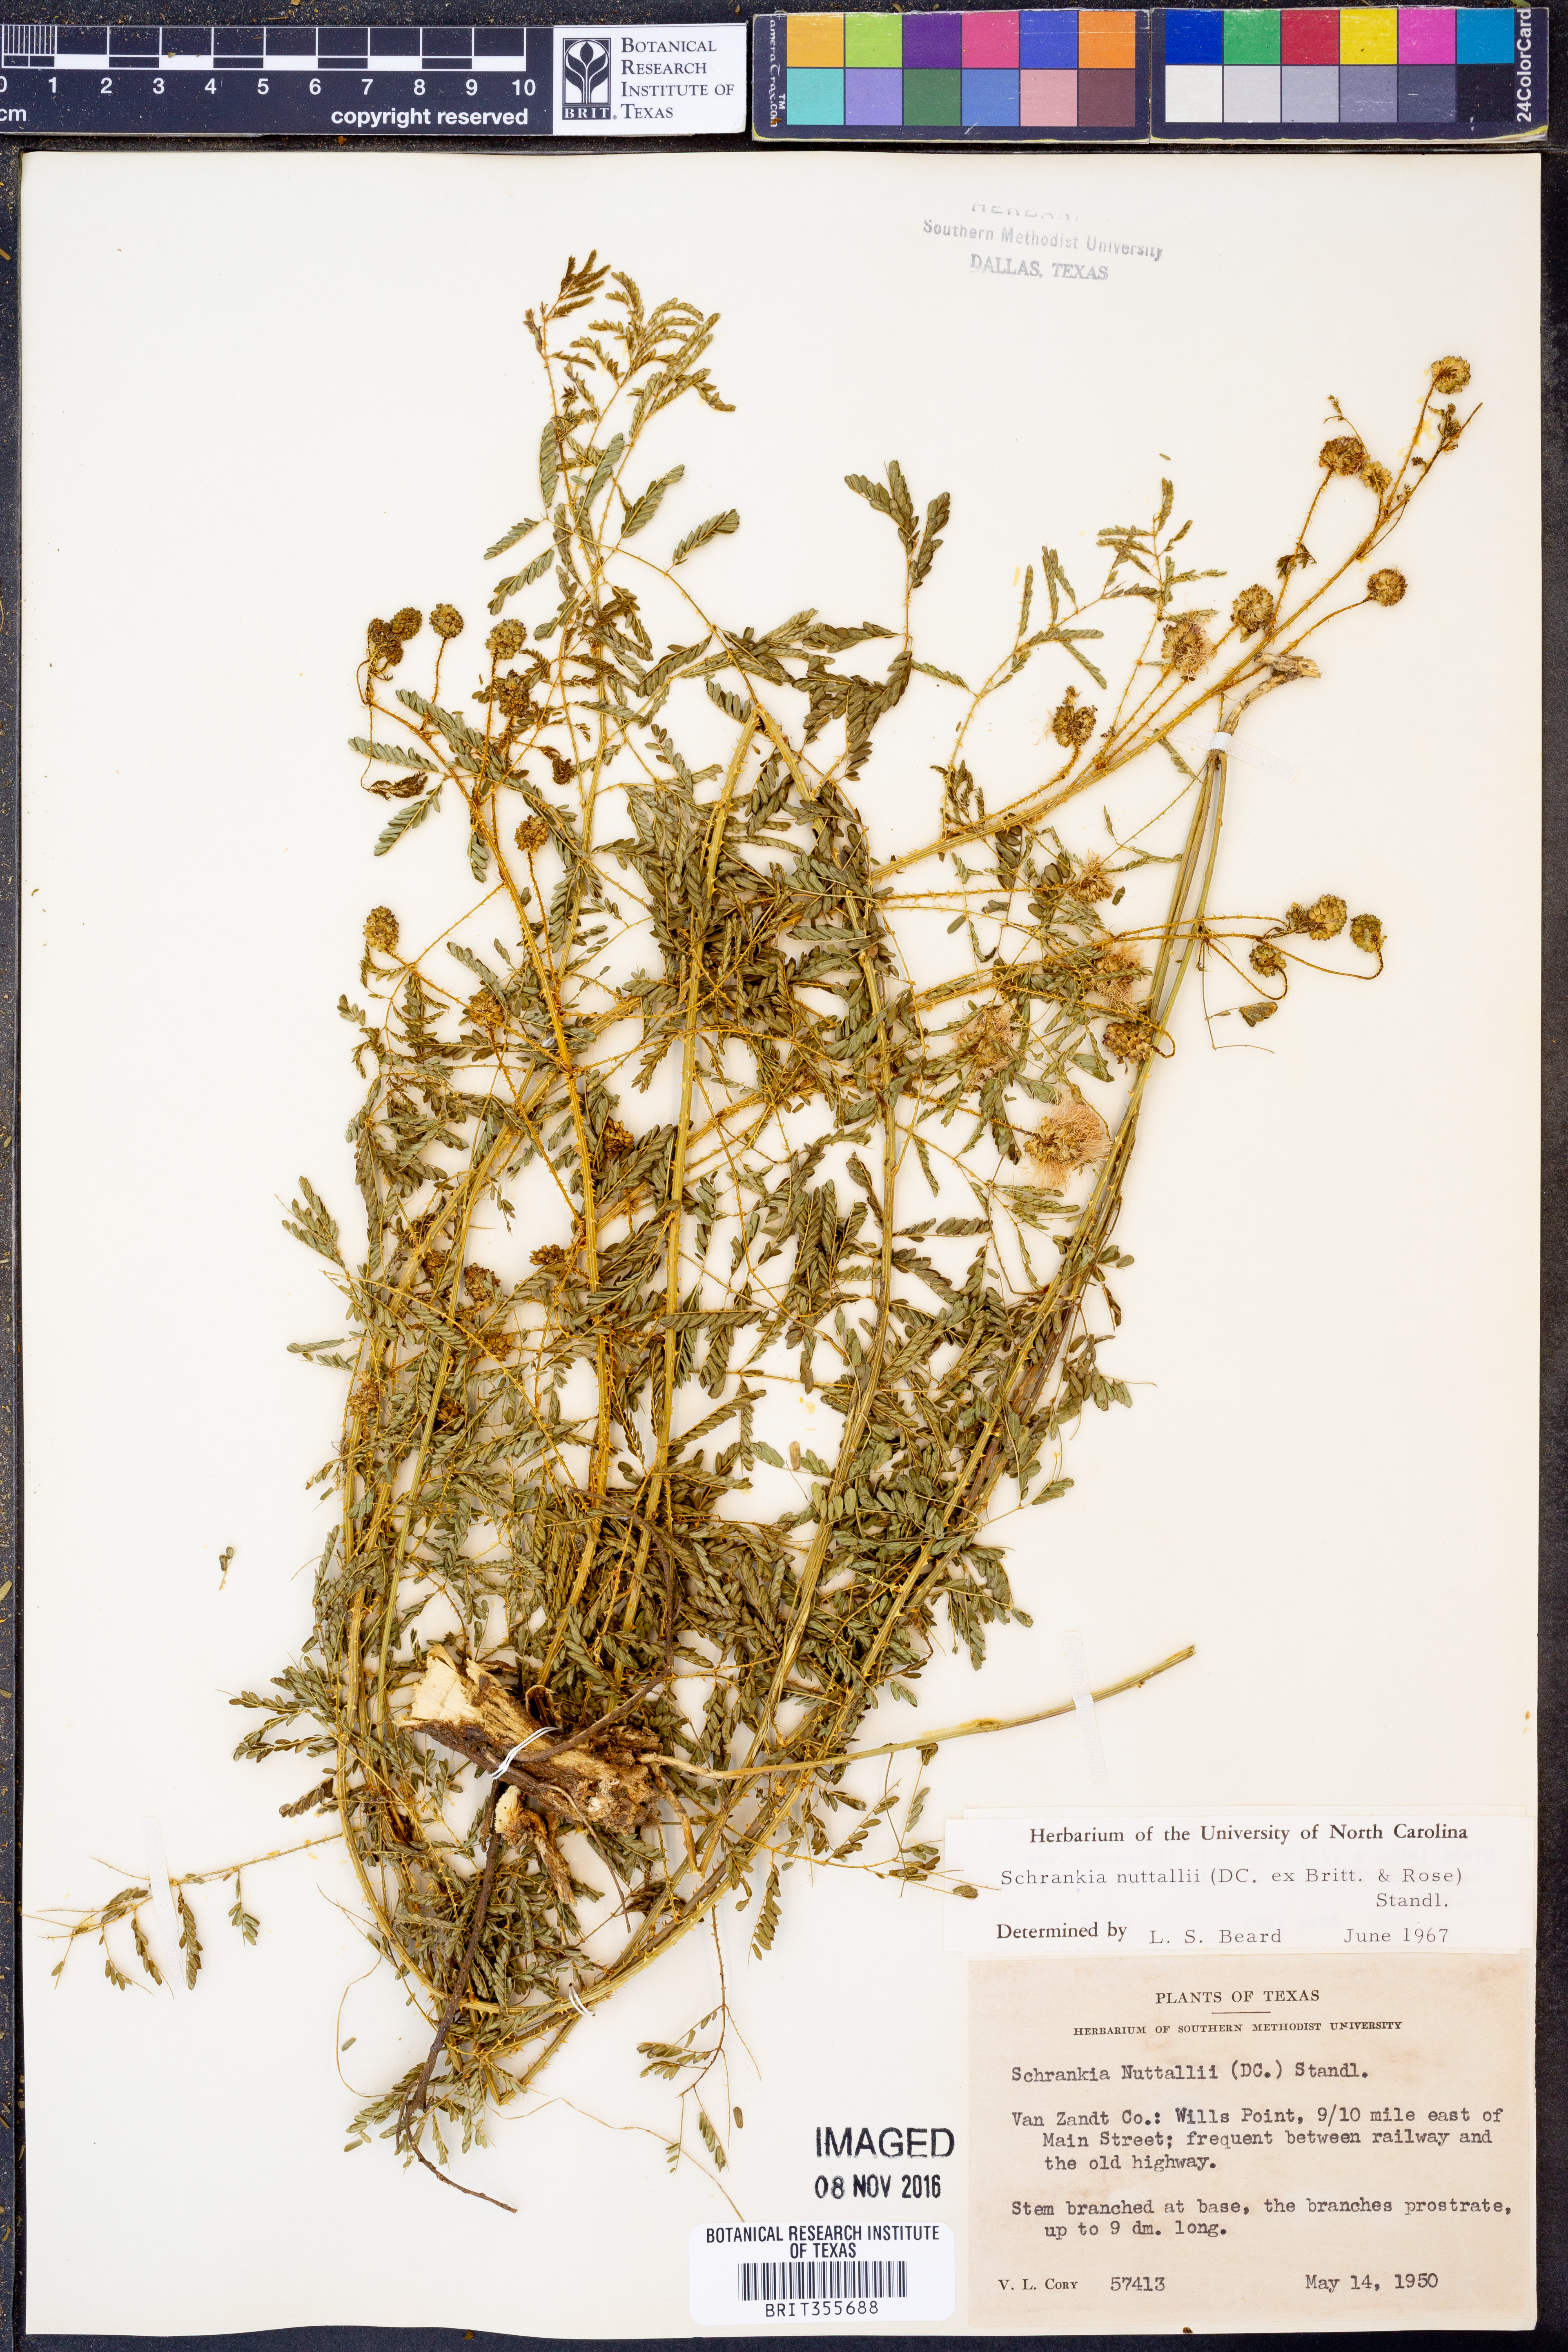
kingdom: Plantae
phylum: Tracheophyta
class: Magnoliopsida
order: Fabales
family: Fabaceae
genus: Mimosa
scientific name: Mimosa quadrivalvis
